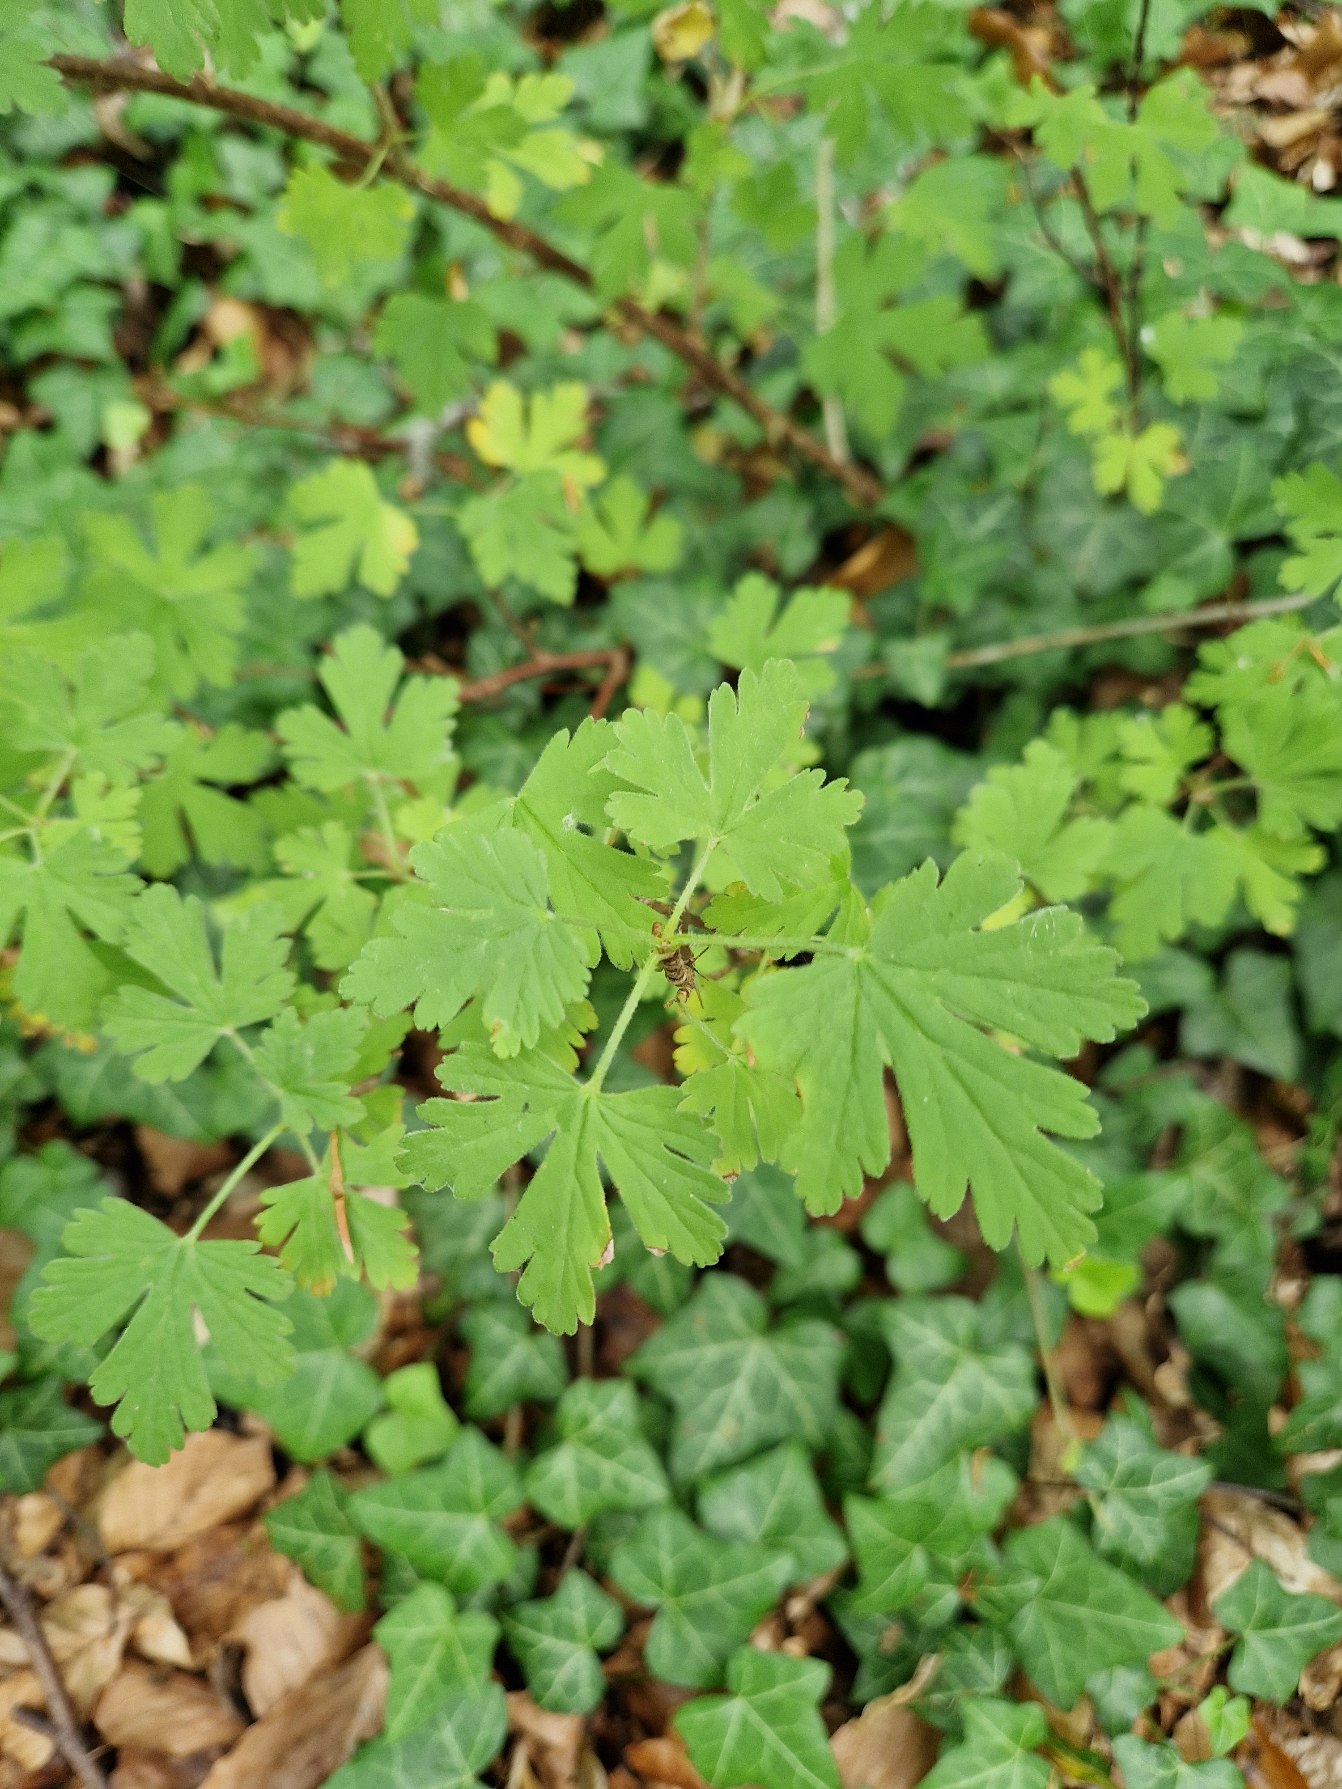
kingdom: Plantae
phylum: Tracheophyta
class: Magnoliopsida
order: Saxifragales
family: Grossulariaceae
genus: Ribes
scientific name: Ribes uva-crispa
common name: Stikkelsbær
